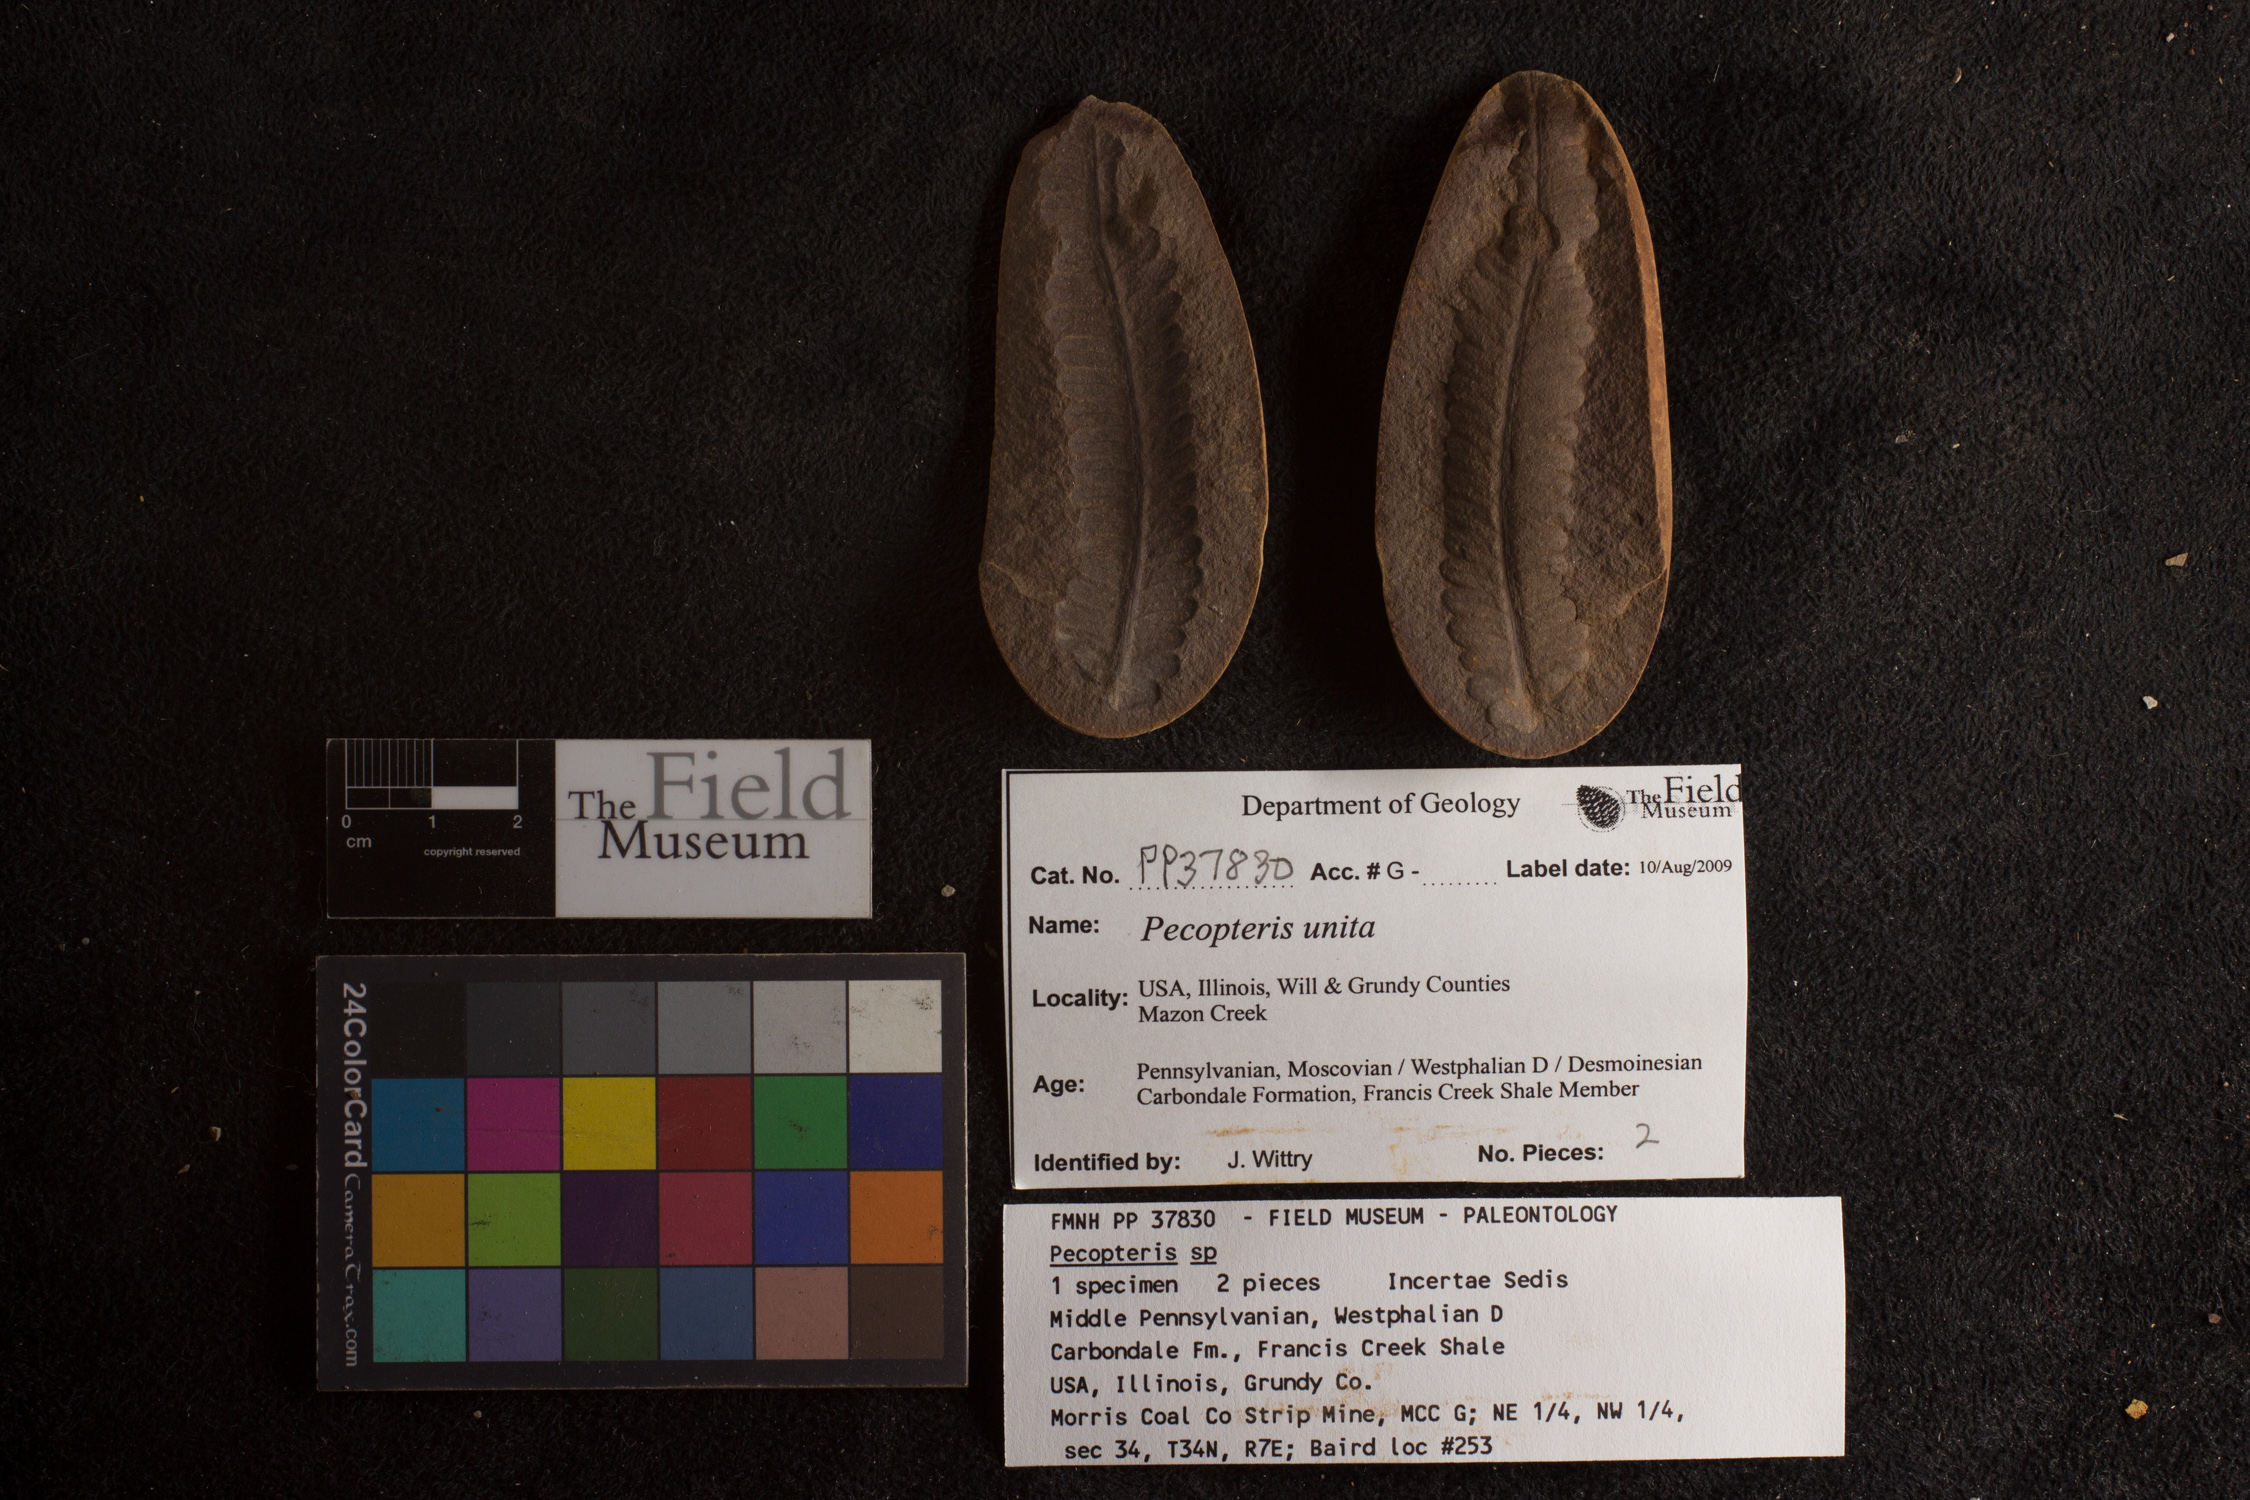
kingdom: Plantae
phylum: Tracheophyta
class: Polypodiopsida
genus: Diplazites
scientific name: Diplazites
